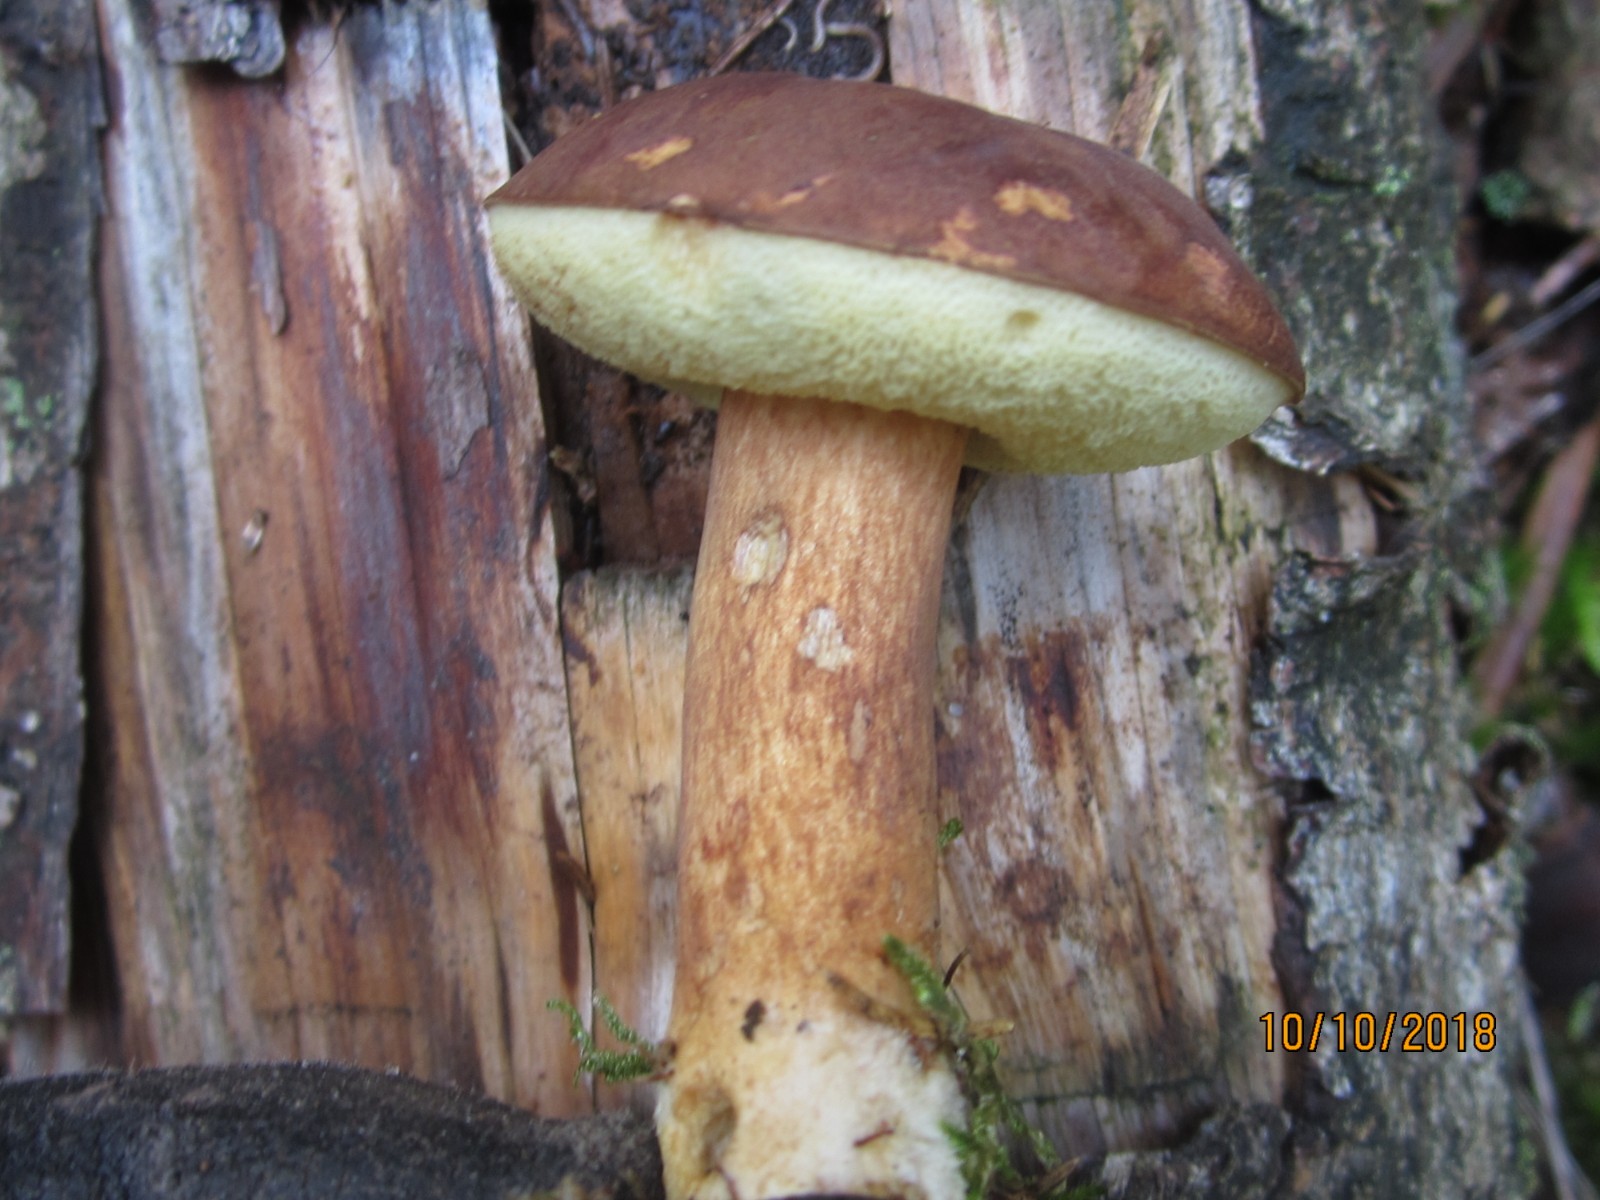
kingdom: Fungi
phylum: Basidiomycota
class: Agaricomycetes
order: Boletales
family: Boletaceae
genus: Imleria
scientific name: Imleria badia
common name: brunstokket rørhat
